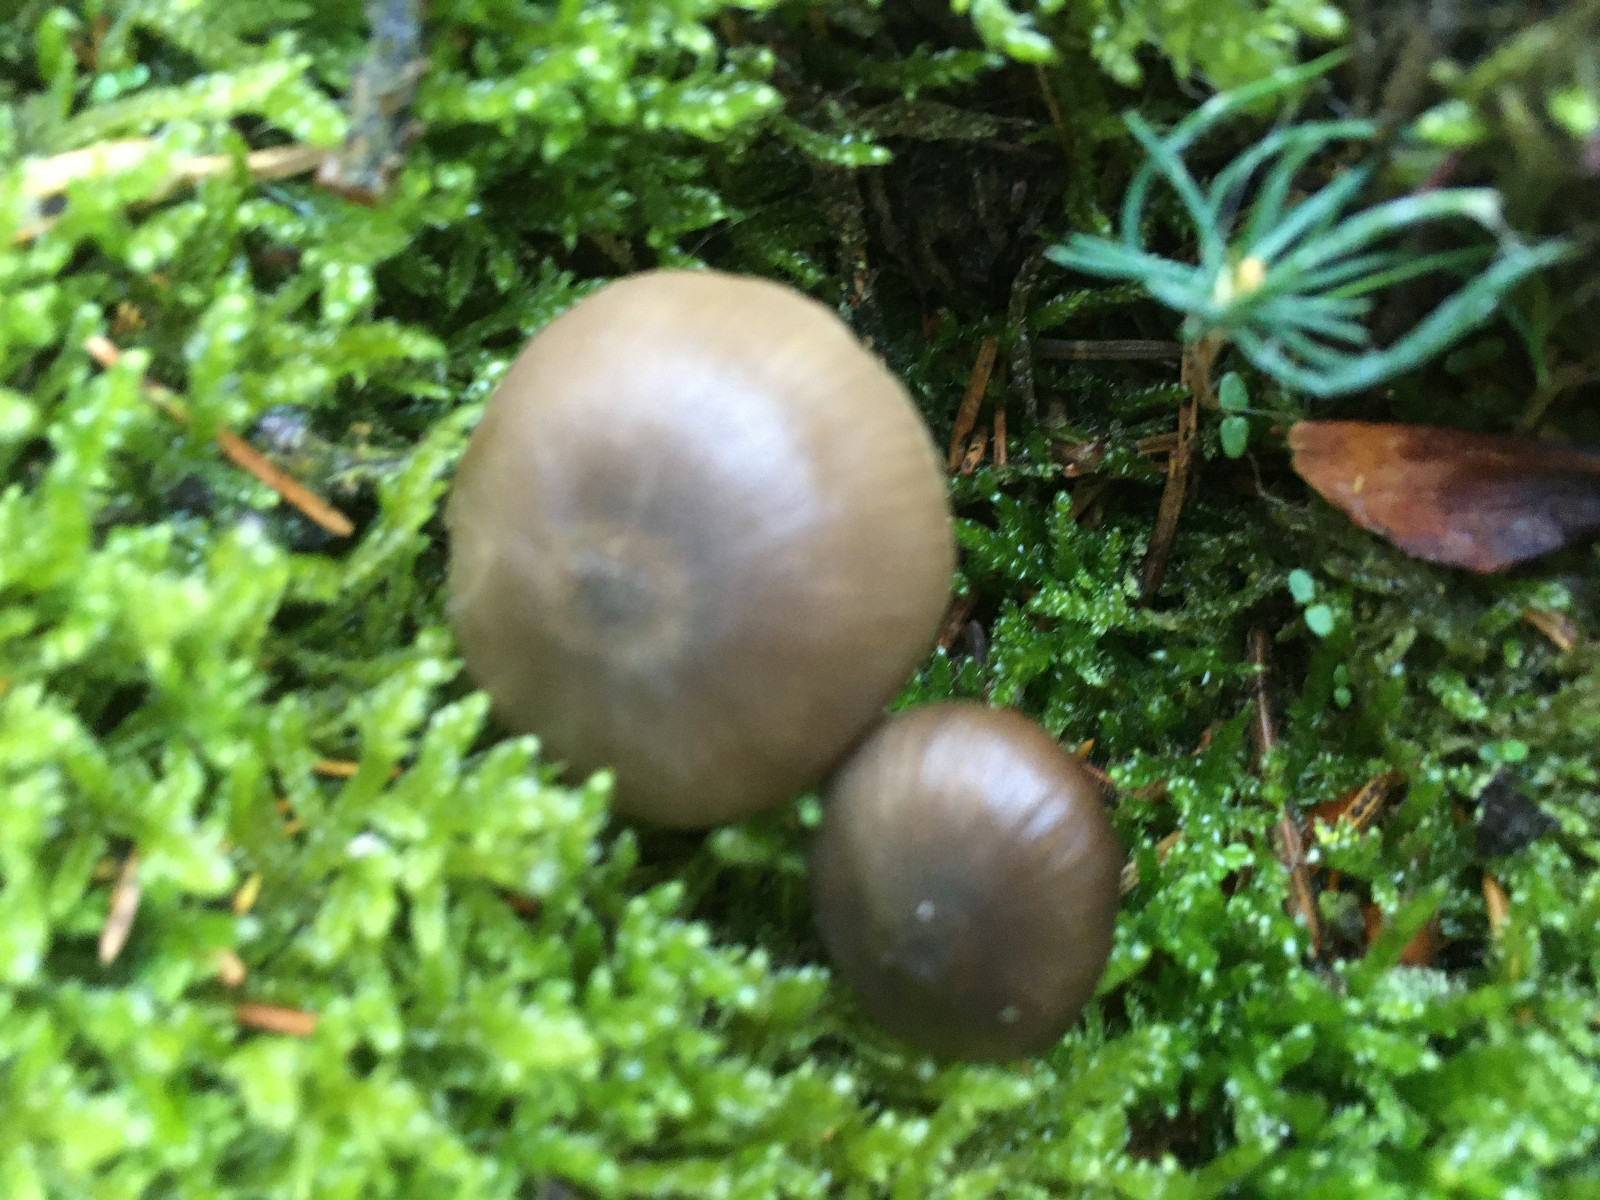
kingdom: Fungi
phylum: Basidiomycota
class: Agaricomycetes
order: Agaricales
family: Entolomataceae
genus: Entocybe
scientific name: Entocybe turbida
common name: plantage-rødblad
